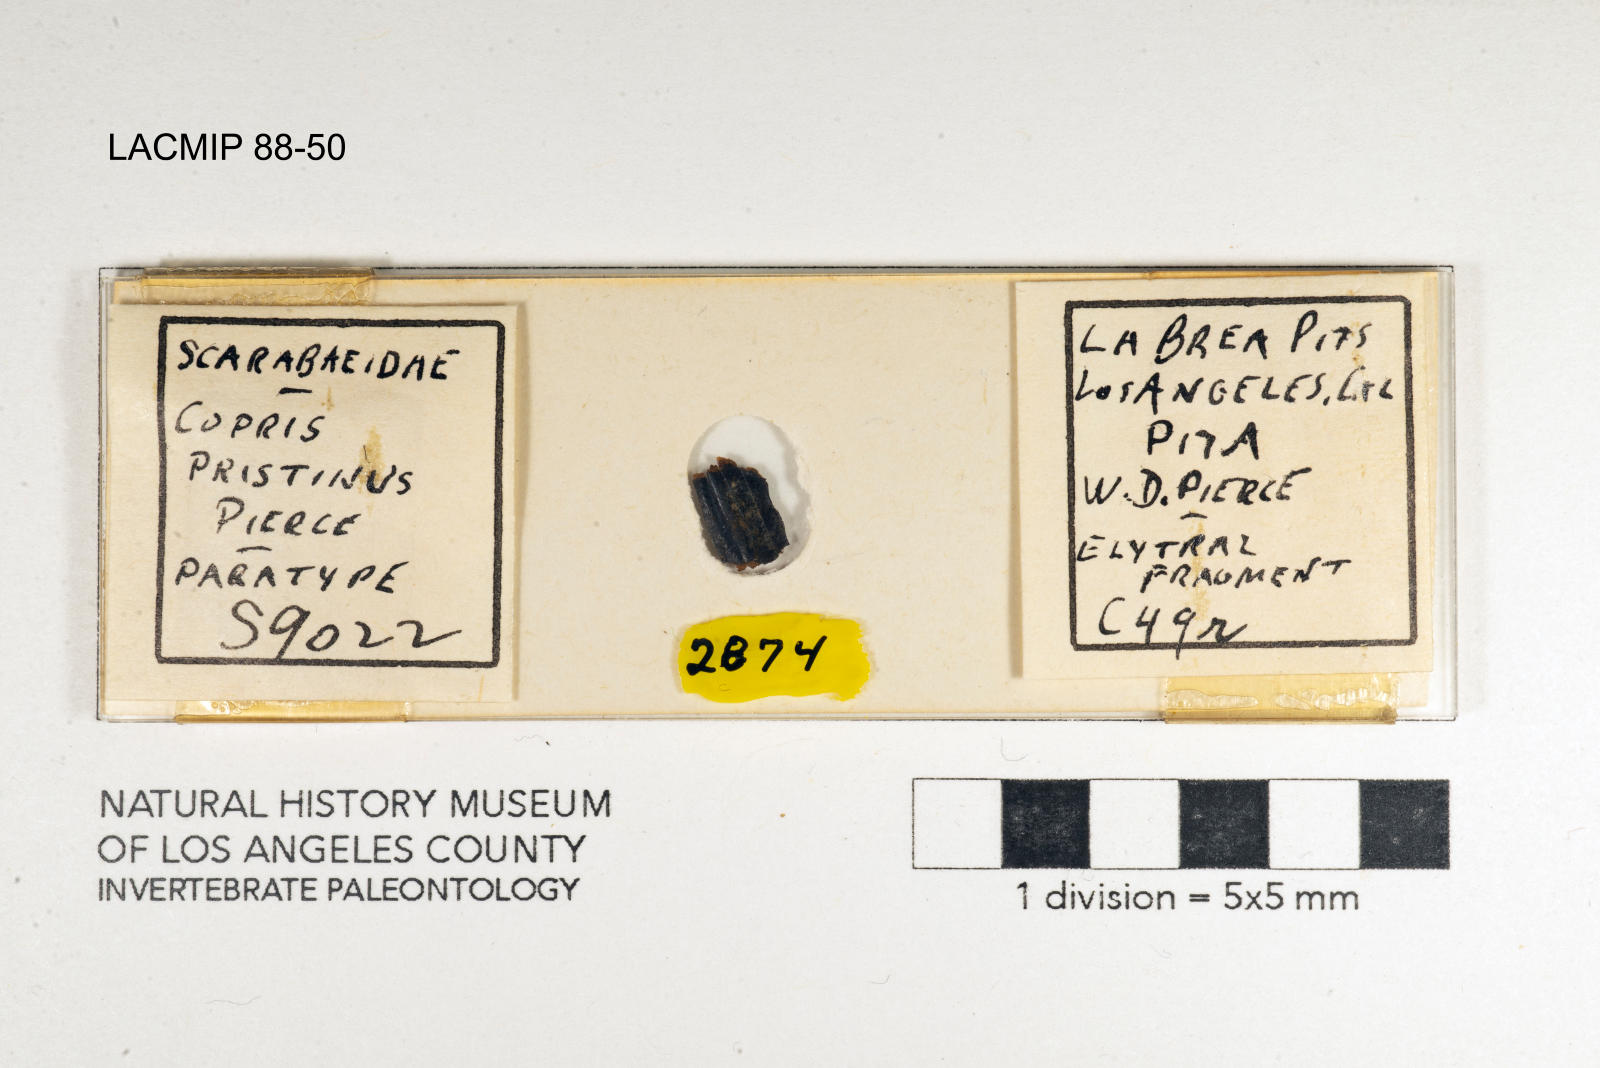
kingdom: Animalia
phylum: Arthropoda
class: Insecta
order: Coleoptera
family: Scarabaeidae
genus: Copris
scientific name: Copris pristinus
